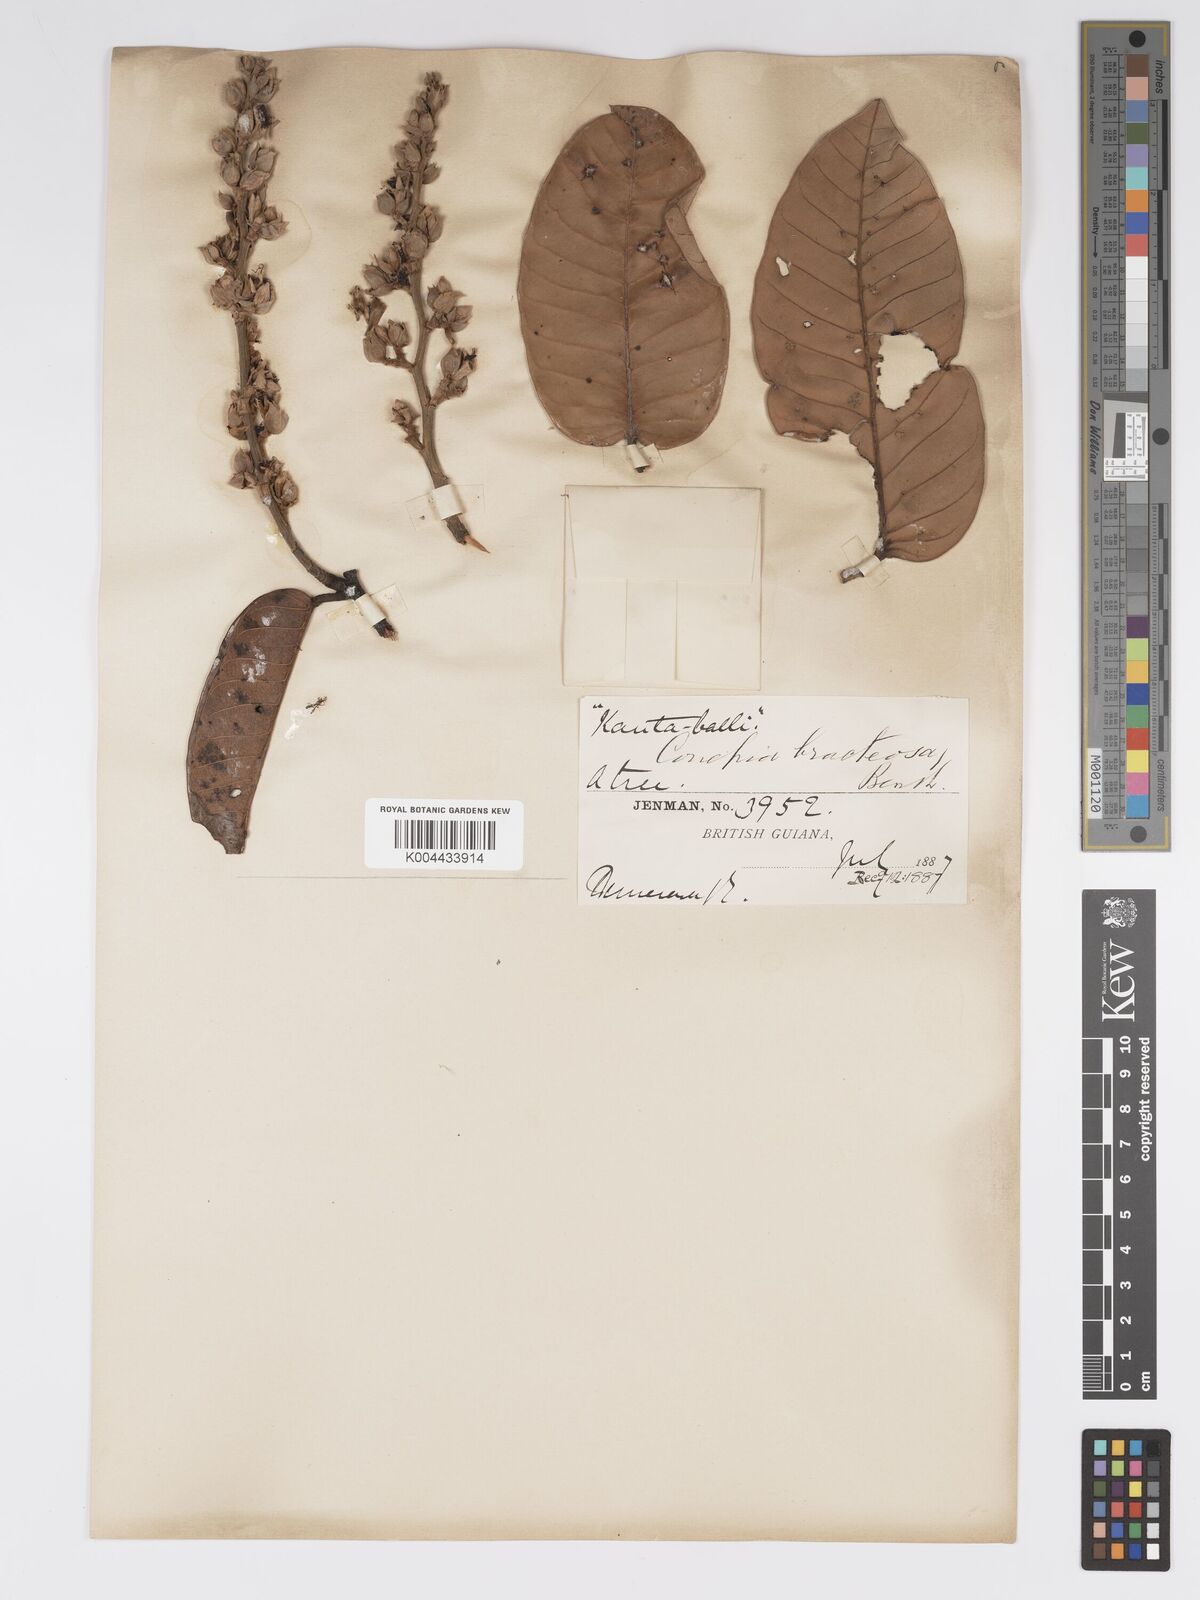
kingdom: Plantae
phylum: Tracheophyta
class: Magnoliopsida
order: Malpighiales
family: Chrysobalanaceae
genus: Couepia
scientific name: Couepia bracteosa
